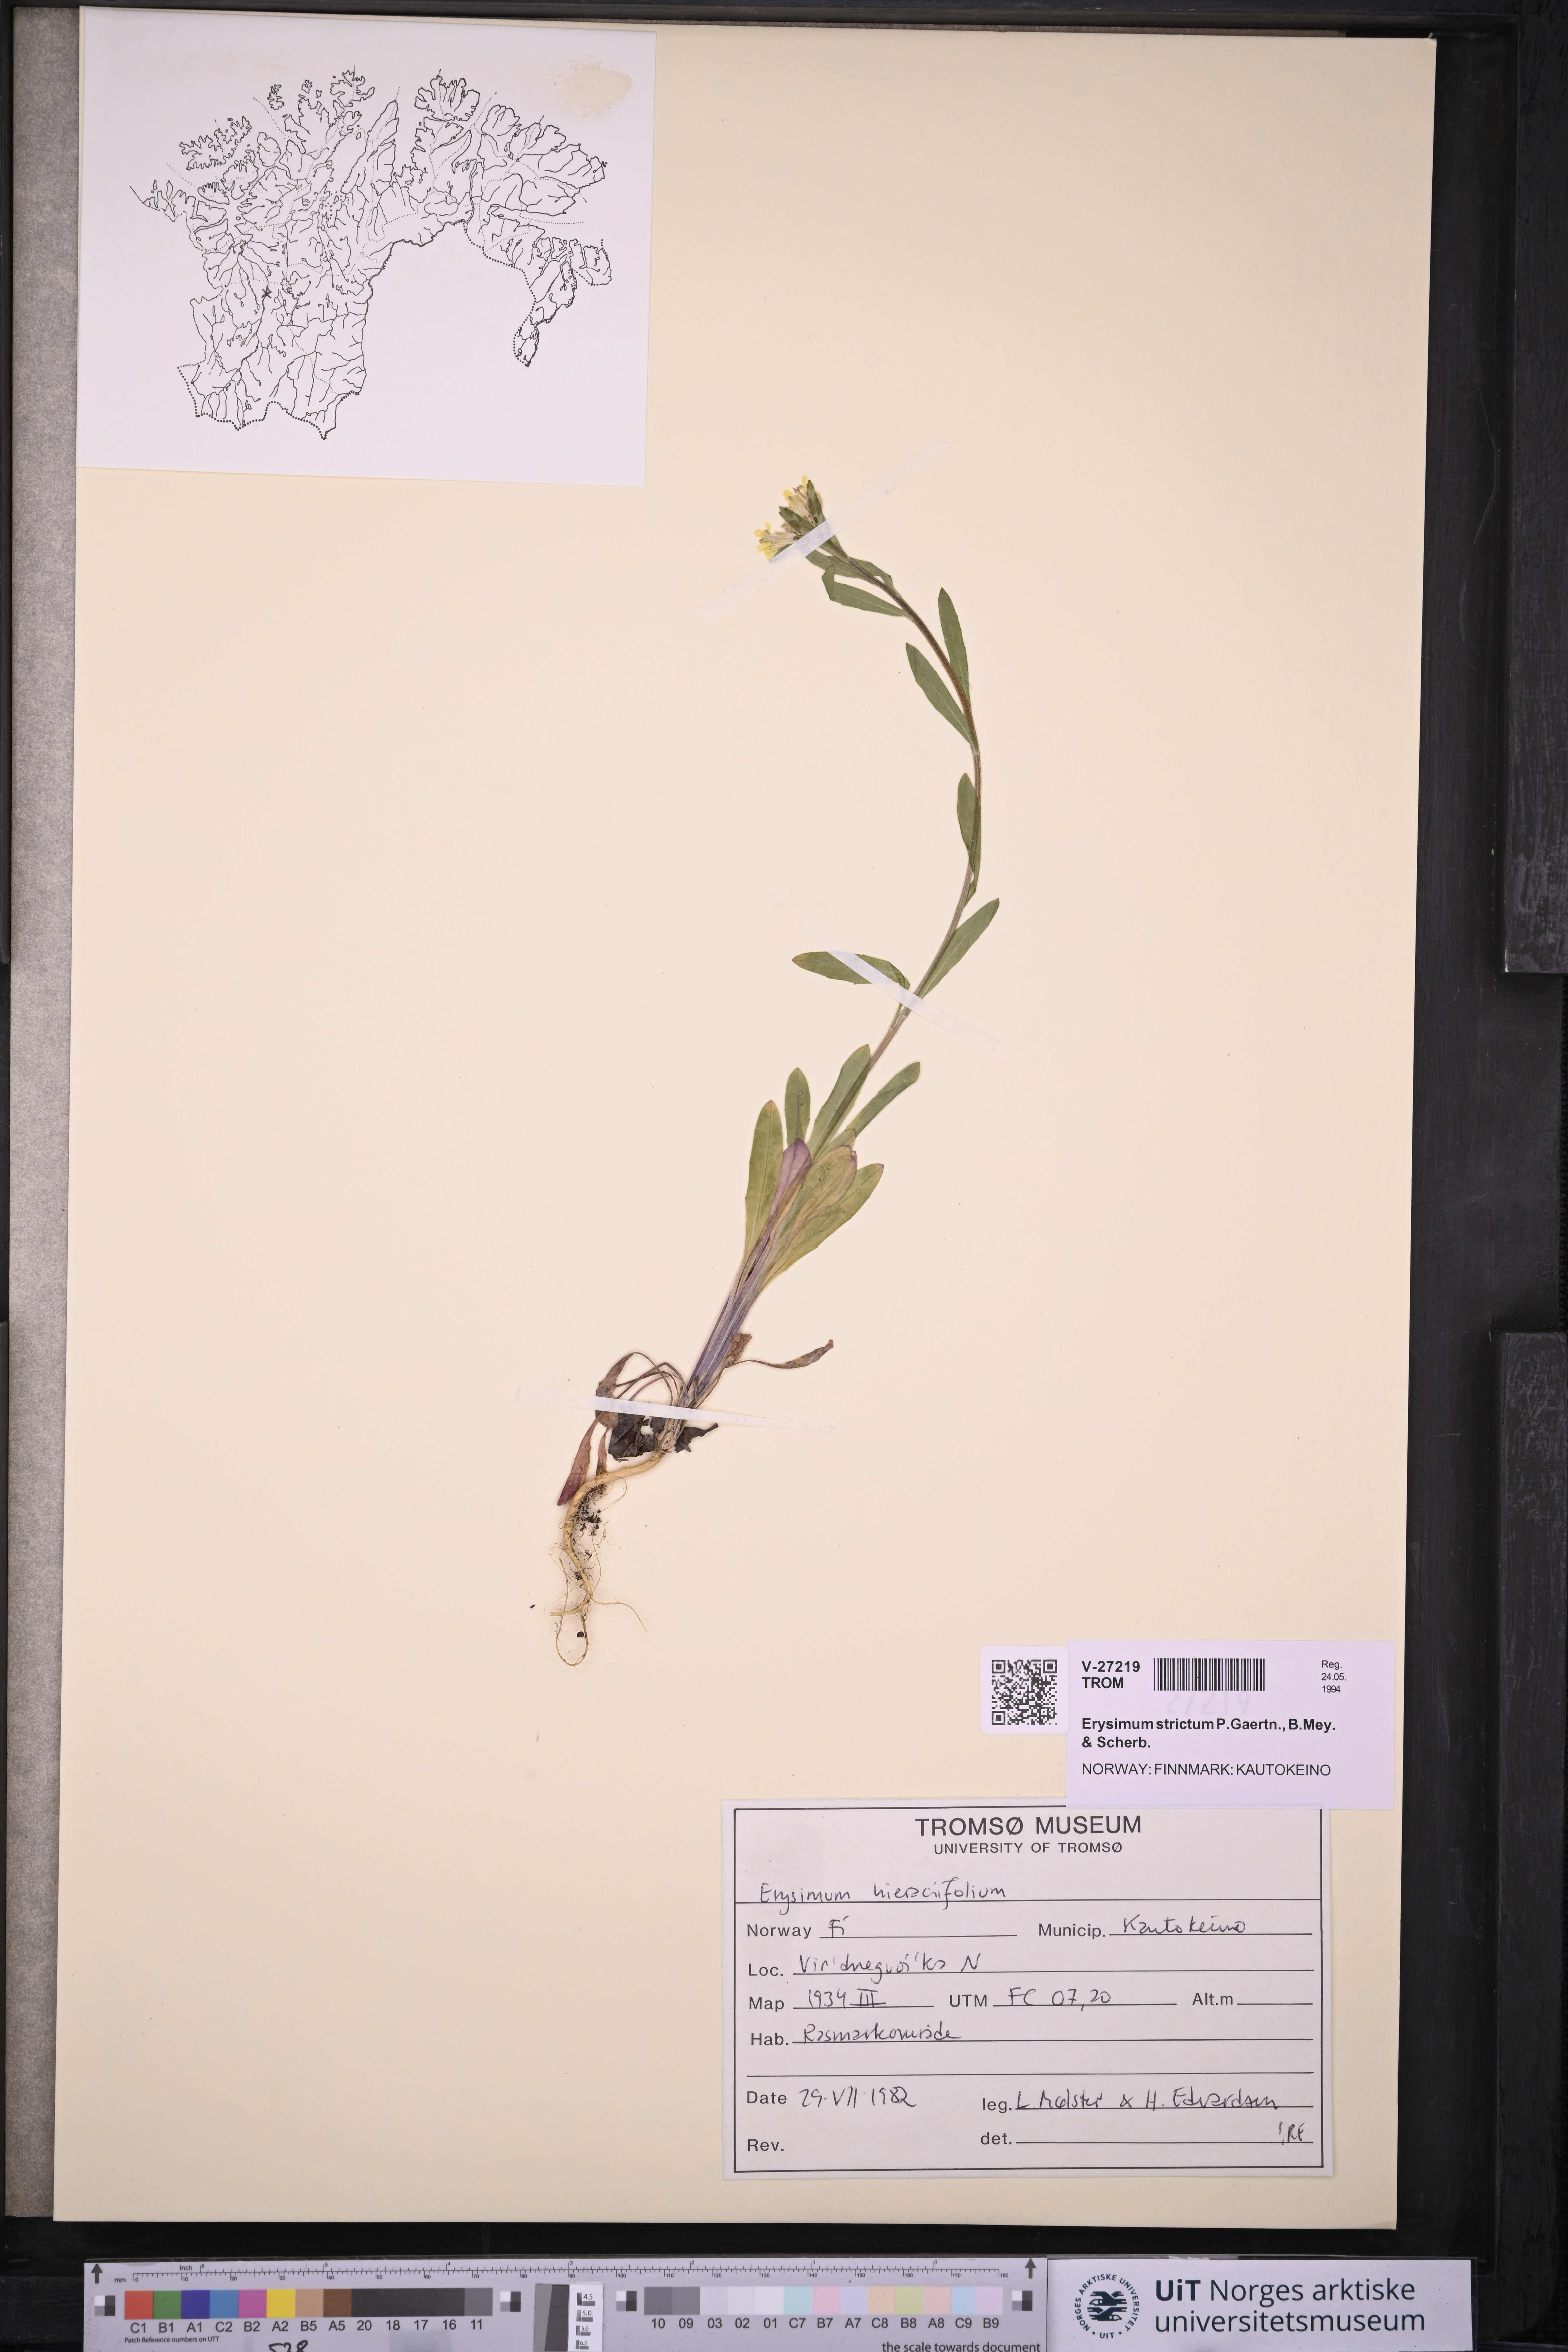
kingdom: Plantae
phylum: Tracheophyta
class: Magnoliopsida
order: Brassicales
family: Brassicaceae
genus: Erysimum
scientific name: Erysimum hieraciifolium
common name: European wallflower
